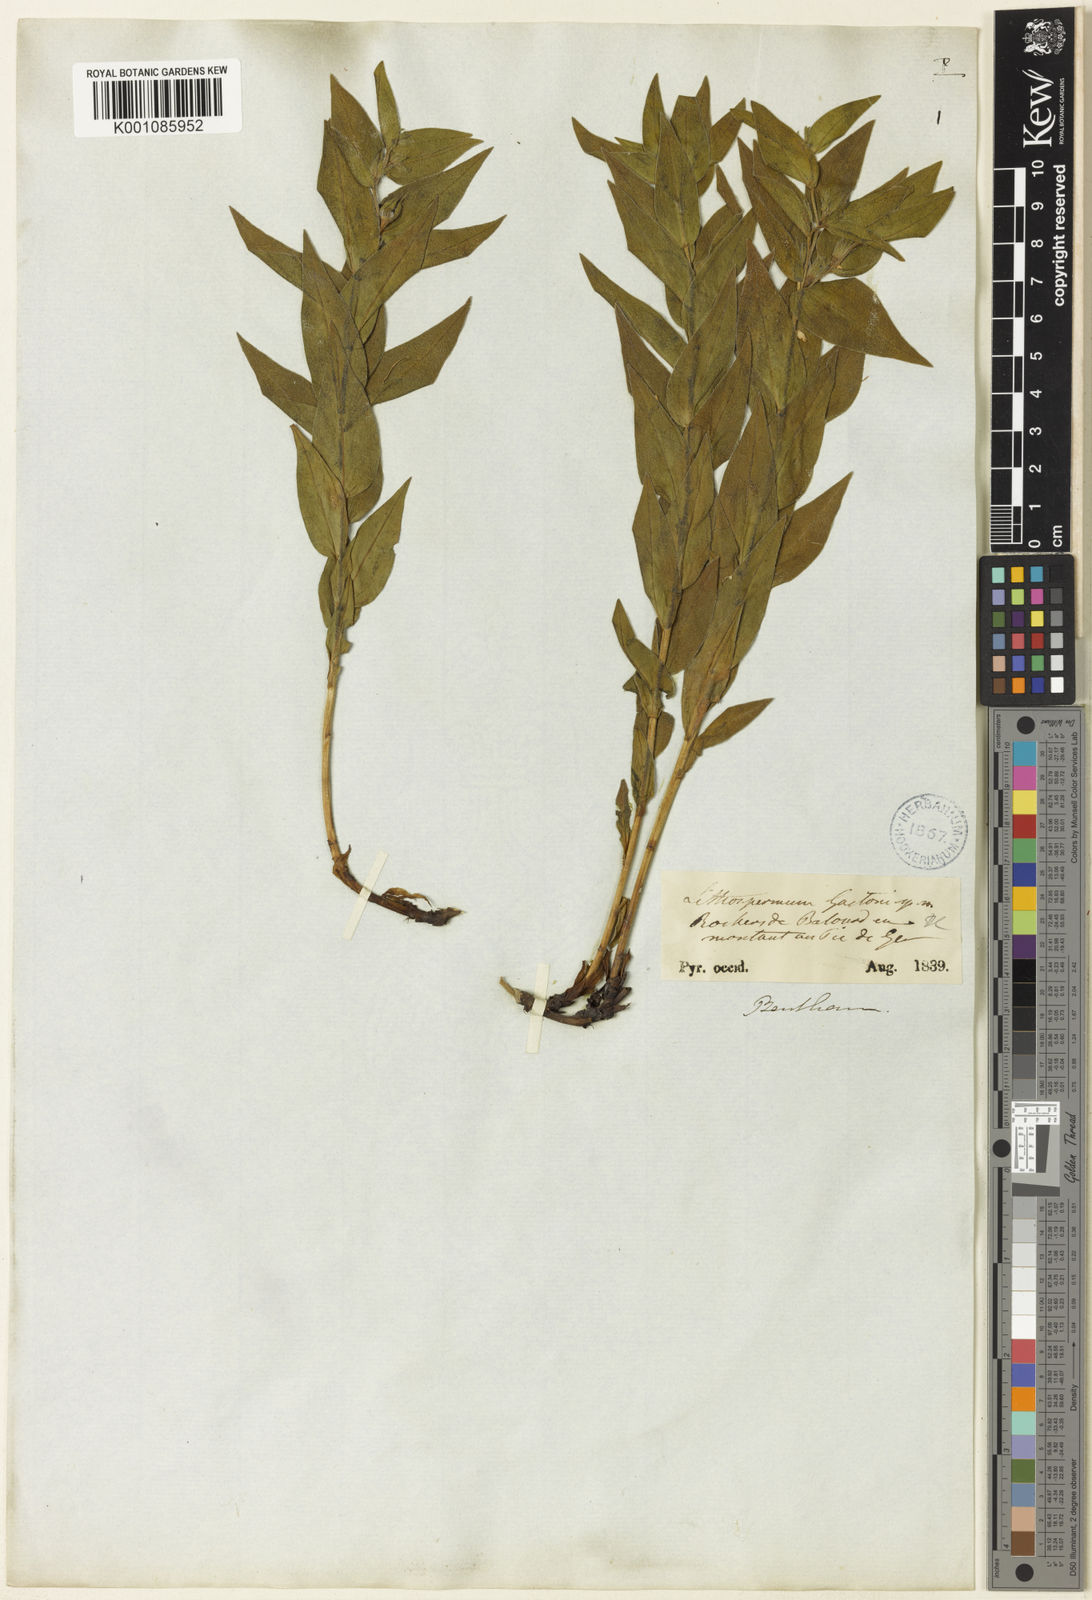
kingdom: Plantae
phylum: Tracheophyta
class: Magnoliopsida
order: Boraginales
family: Boraginaceae
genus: Glandora
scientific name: Glandora gastonii
